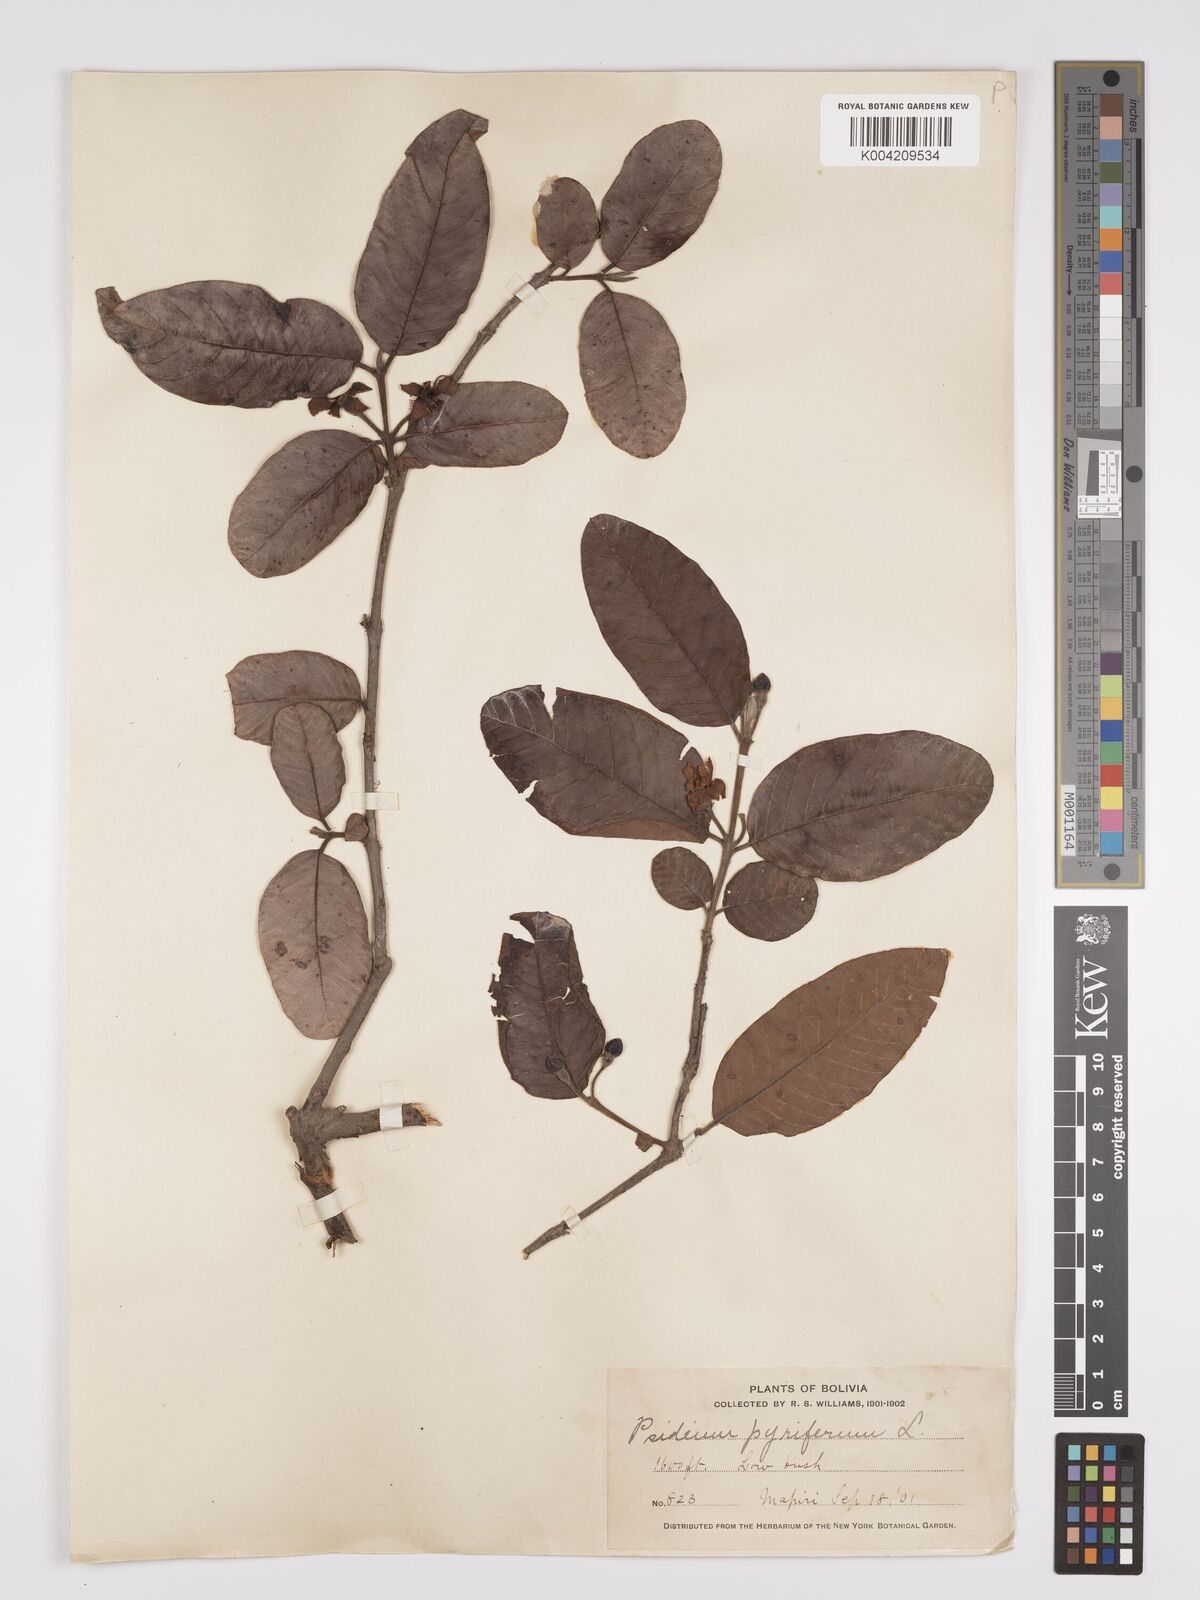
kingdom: Plantae
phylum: Tracheophyta
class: Magnoliopsida
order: Myrtales
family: Myrtaceae
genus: Psidium
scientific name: Psidium guajava
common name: Guava
